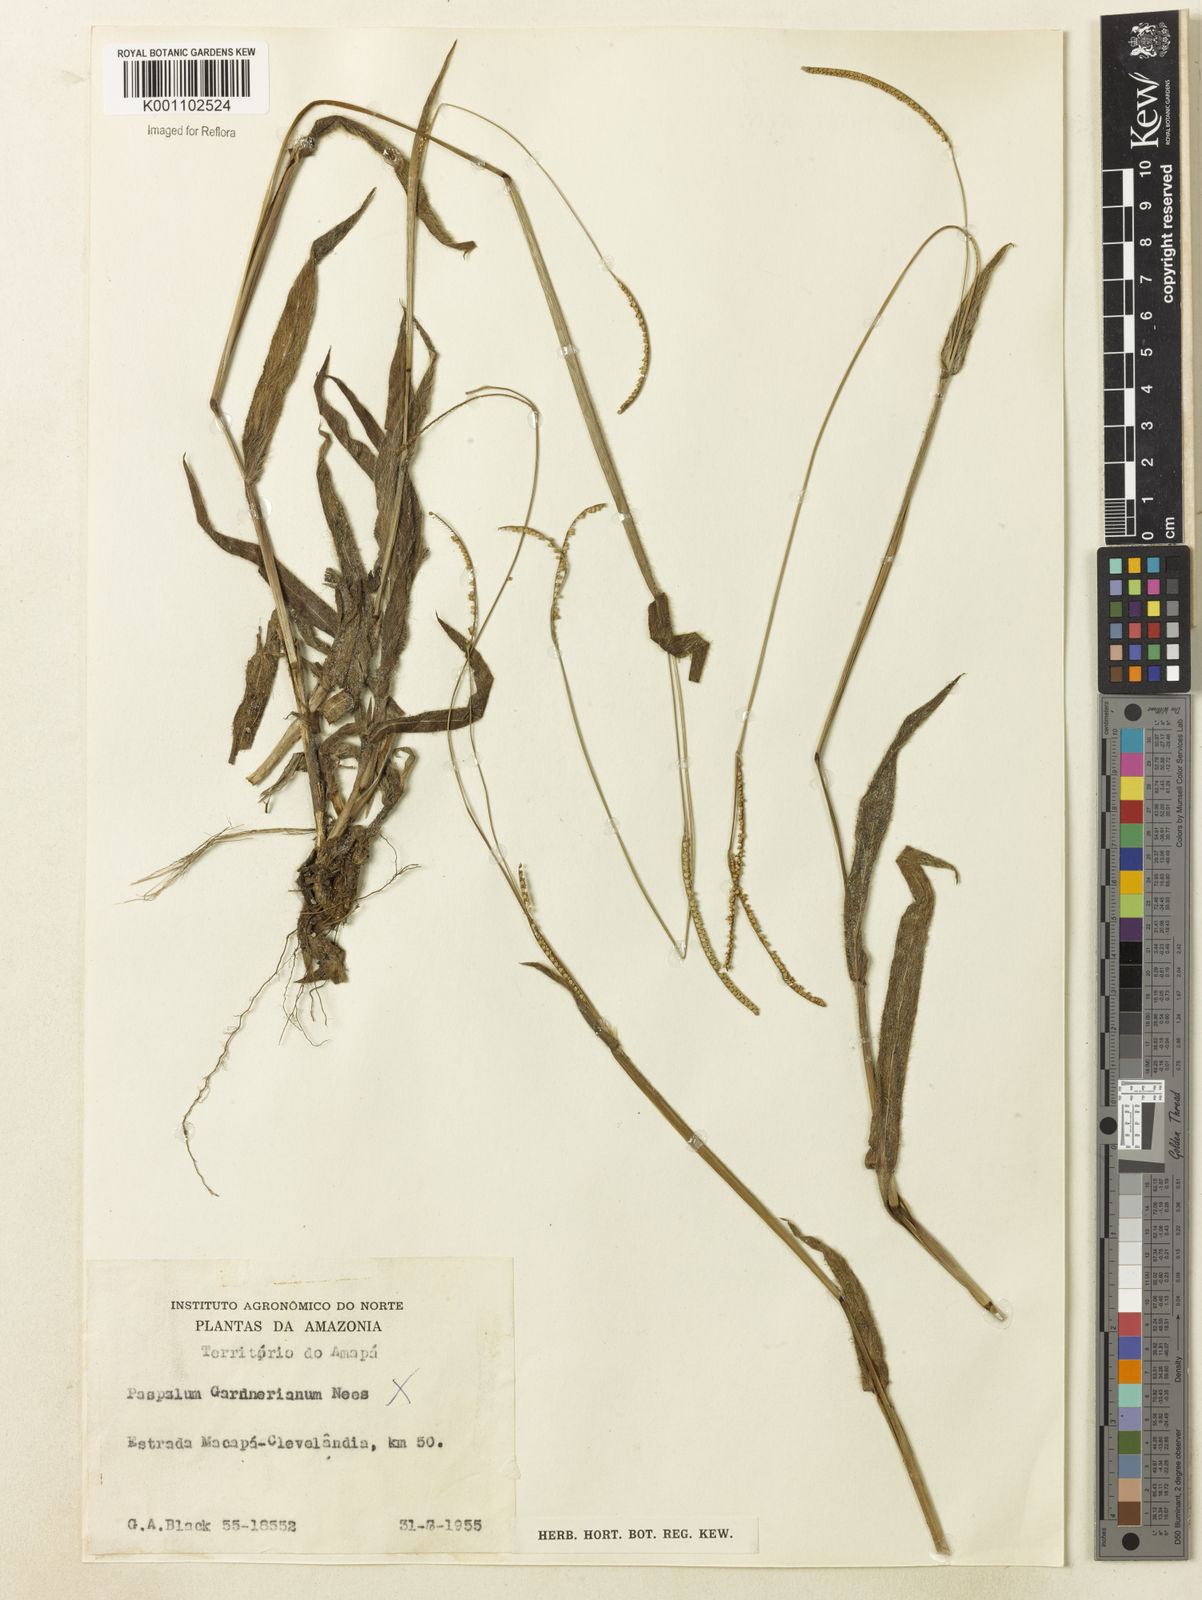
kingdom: Plantae
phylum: Tracheophyta
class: Liliopsida
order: Poales
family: Poaceae
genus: Paspalum
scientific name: Paspalum arenarium
